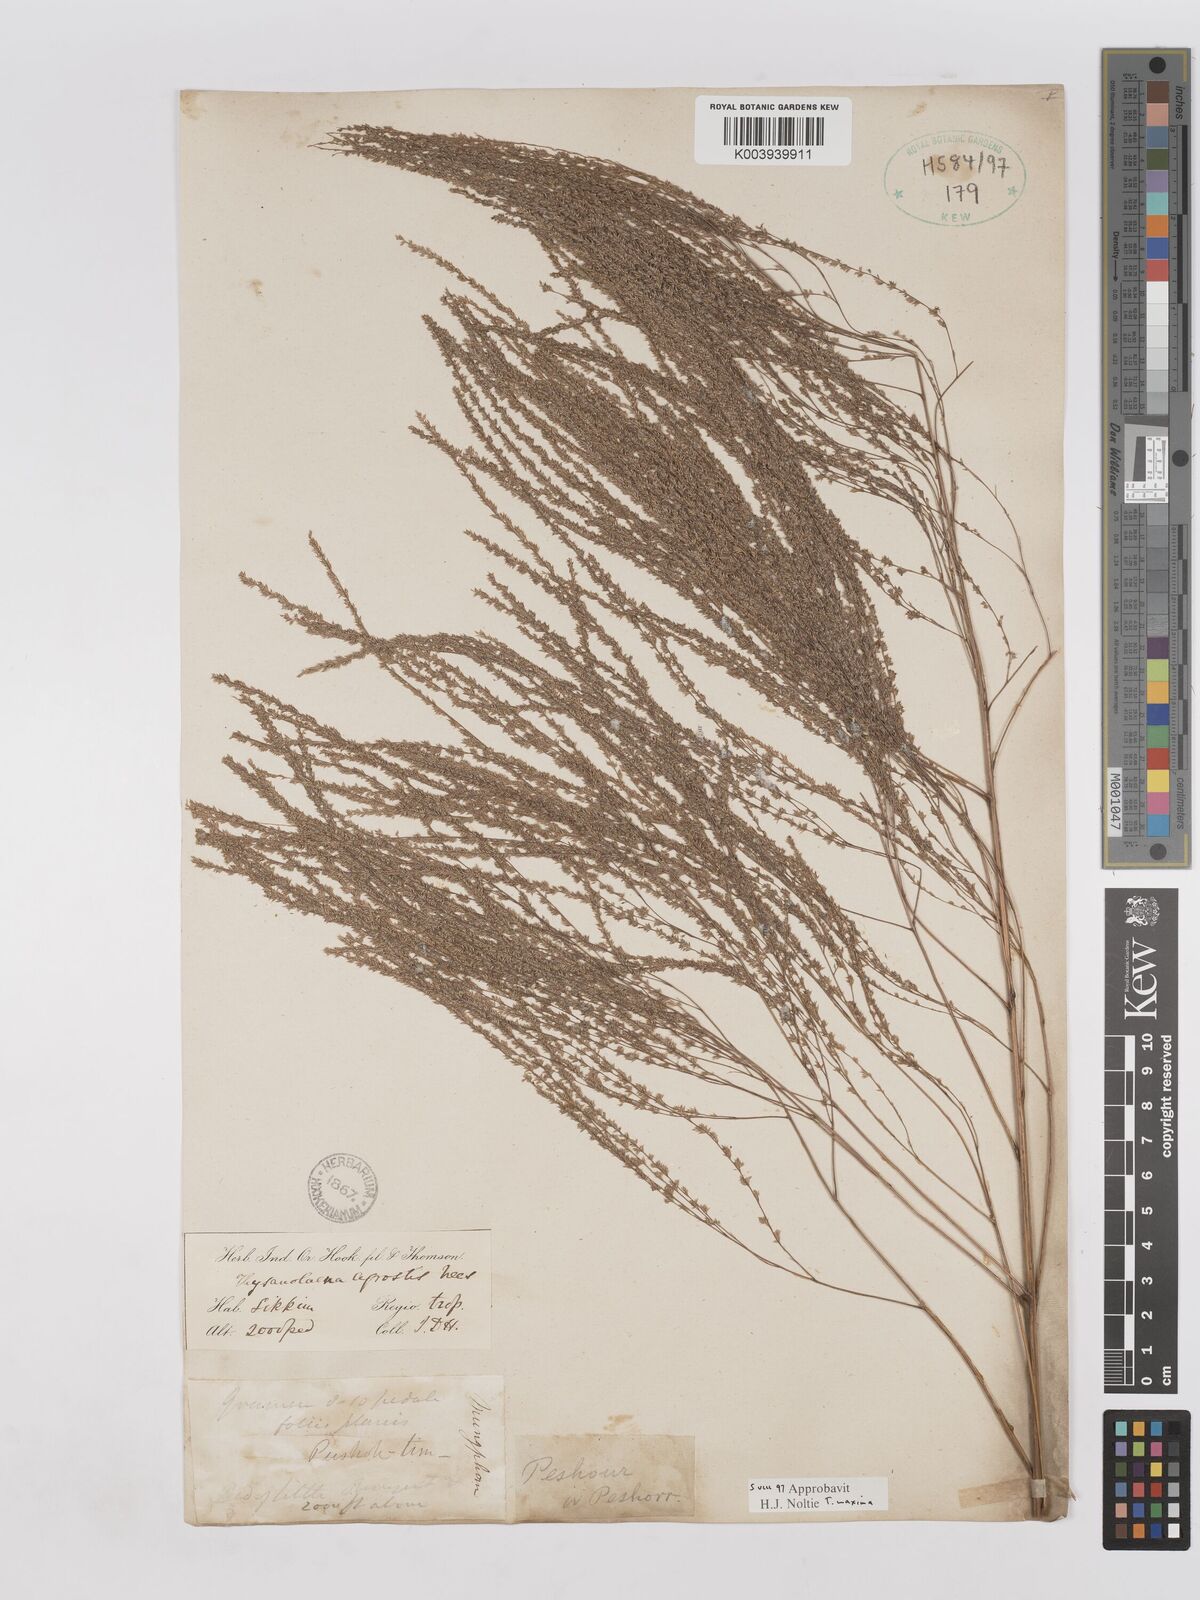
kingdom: Plantae
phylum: Tracheophyta
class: Liliopsida
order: Poales
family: Poaceae
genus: Thysanolaena
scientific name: Thysanolaena latifolia
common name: Tiger grass
